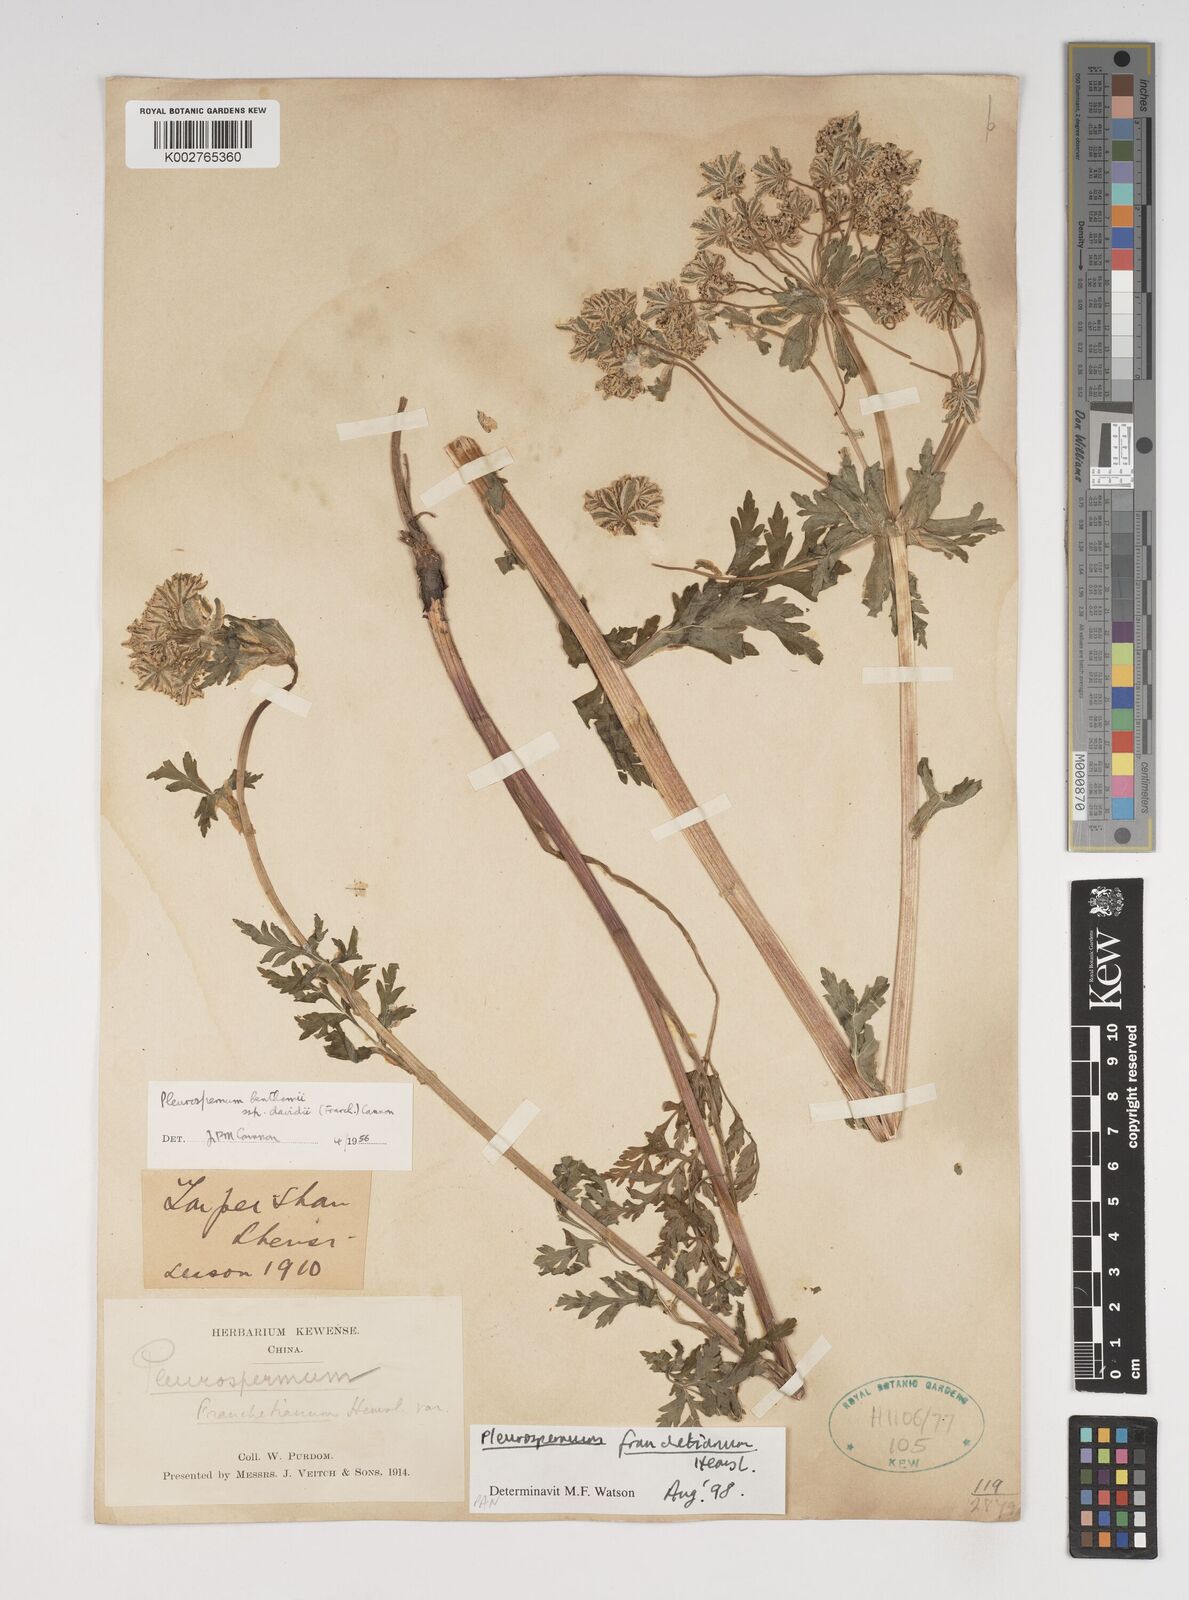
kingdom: Plantae
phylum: Tracheophyta
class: Magnoliopsida
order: Apiales
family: Apiaceae
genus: Hymenidium
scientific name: Hymenidium
